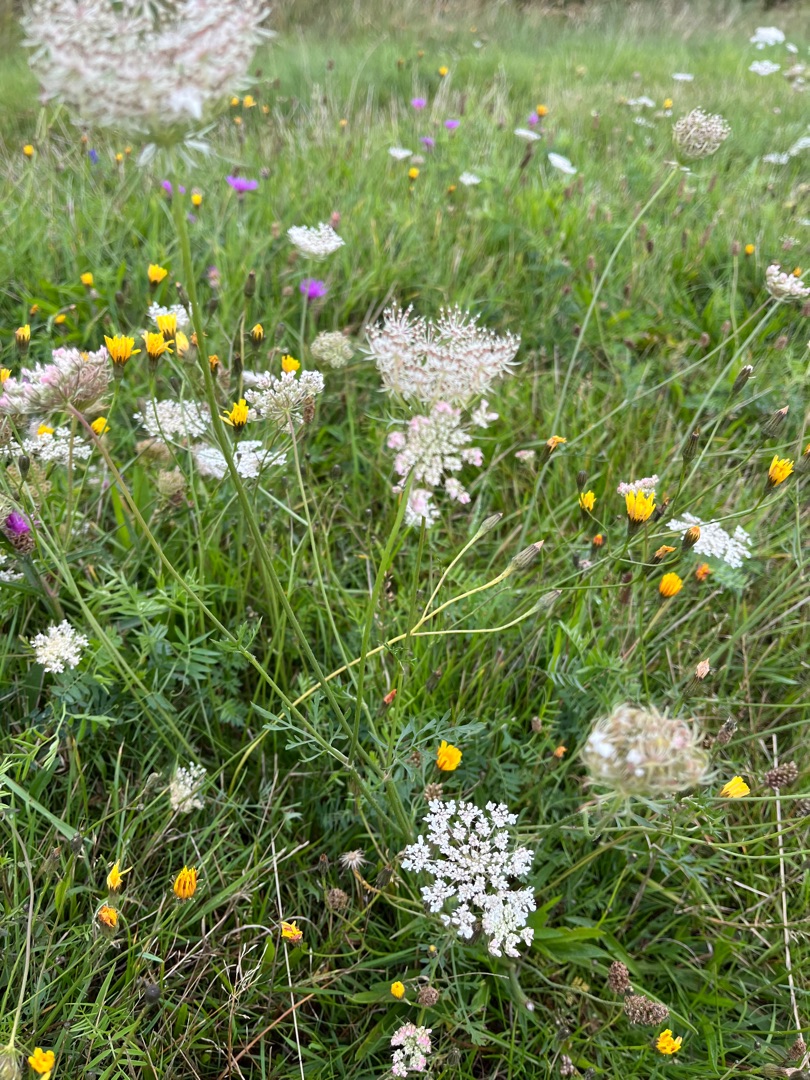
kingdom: Plantae
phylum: Tracheophyta
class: Magnoliopsida
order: Apiales
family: Apiaceae
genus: Daucus
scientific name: Daucus carota
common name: Gulerod
